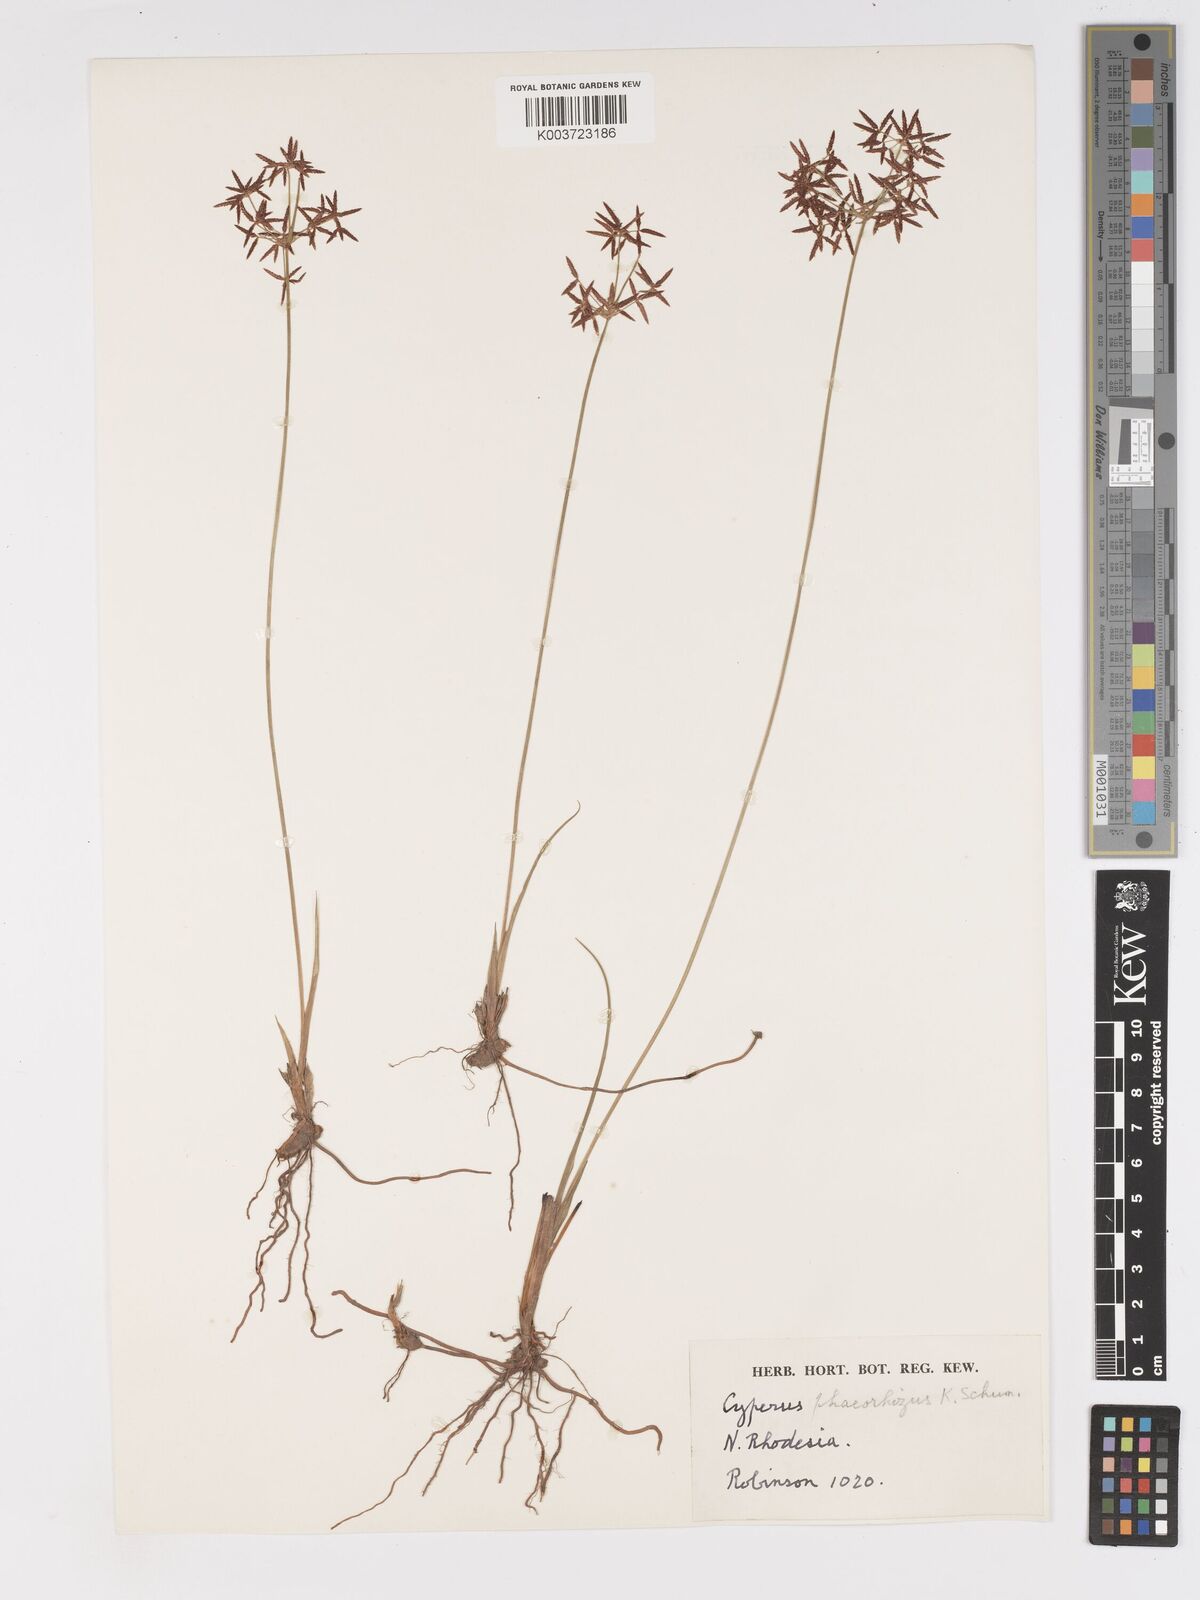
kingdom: Plantae
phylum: Tracheophyta
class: Liliopsida
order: Poales
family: Cyperaceae
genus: Cyperus
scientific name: Cyperus mwinilungensis
